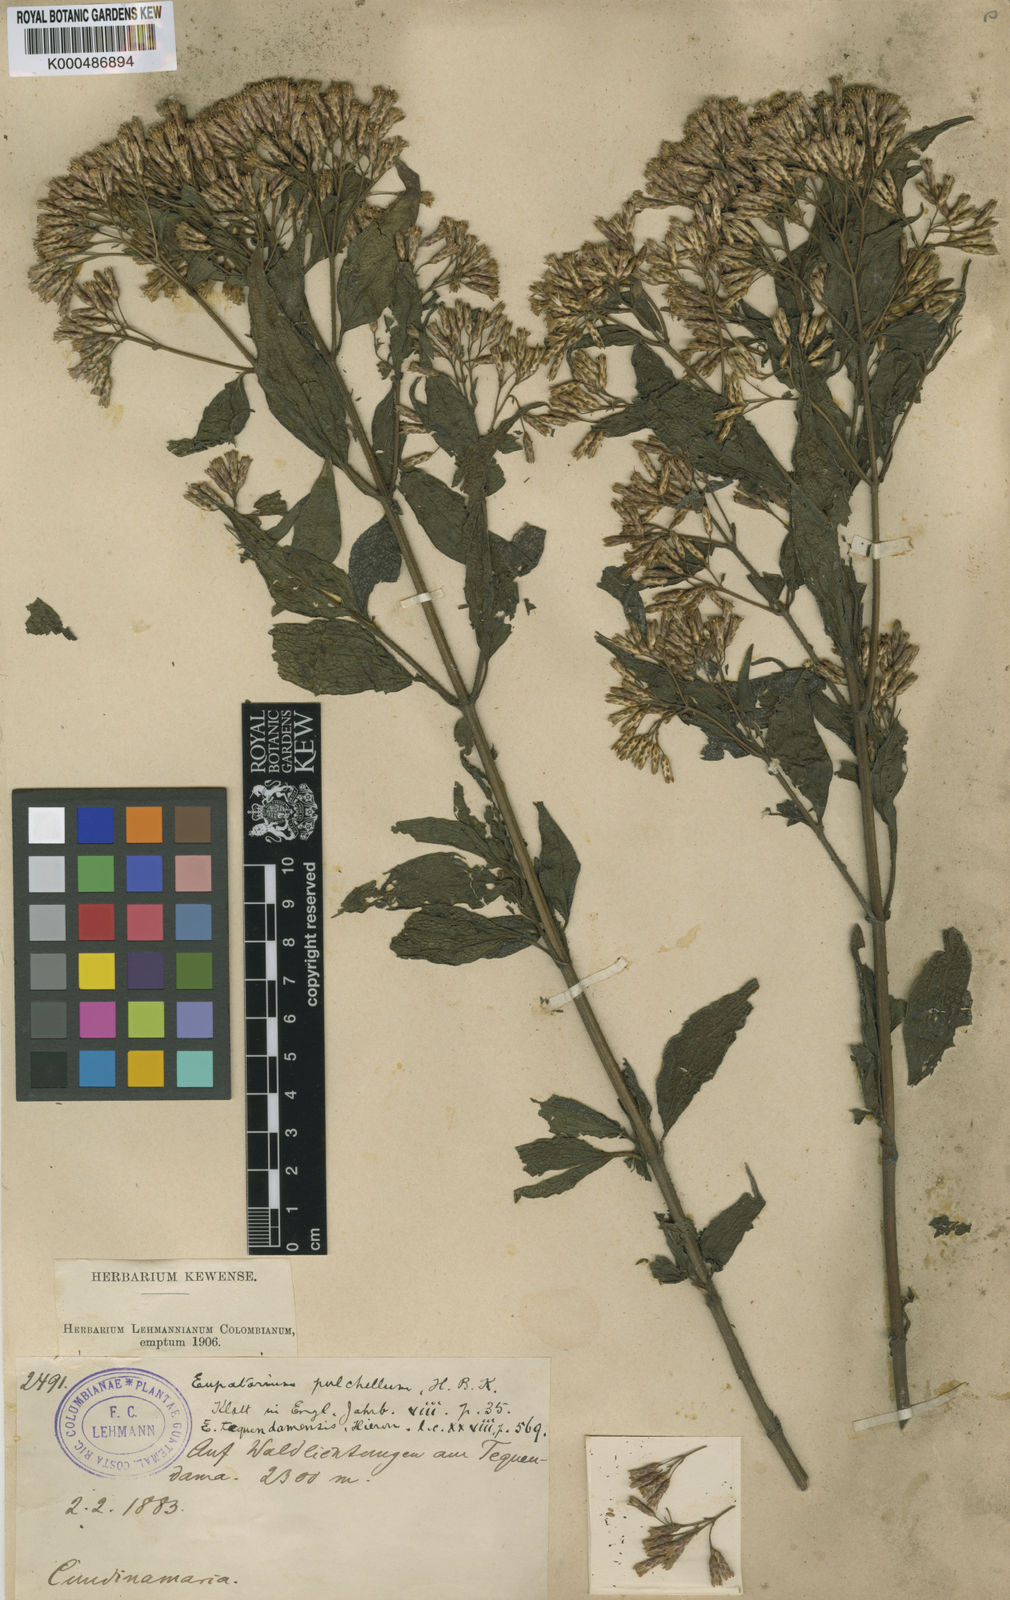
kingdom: Plantae
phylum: Tracheophyta
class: Magnoliopsida
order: Asterales
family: Asteraceae
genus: Chromolaena
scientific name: Chromolaena subscandens
